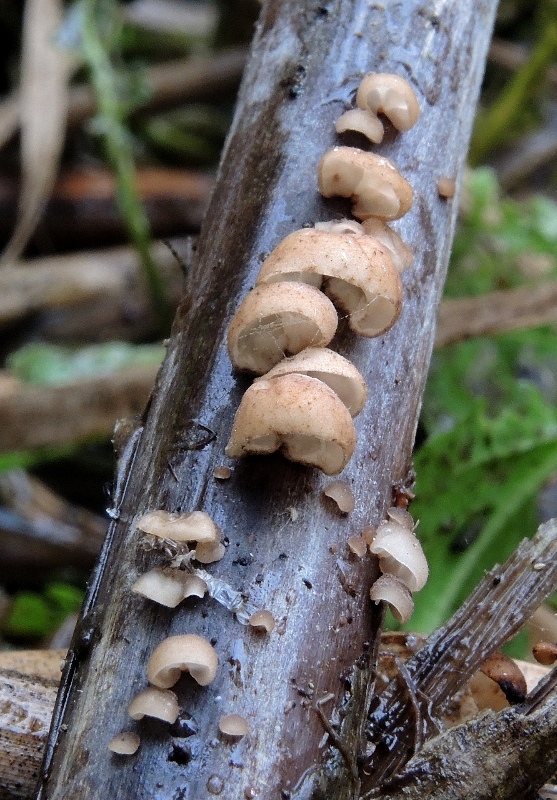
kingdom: Fungi
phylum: Basidiomycota
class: Agaricomycetes
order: Agaricales
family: Physalacriaceae
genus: Gloiocephala
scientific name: Gloiocephala menieri
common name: dunhammer-spatelhat
